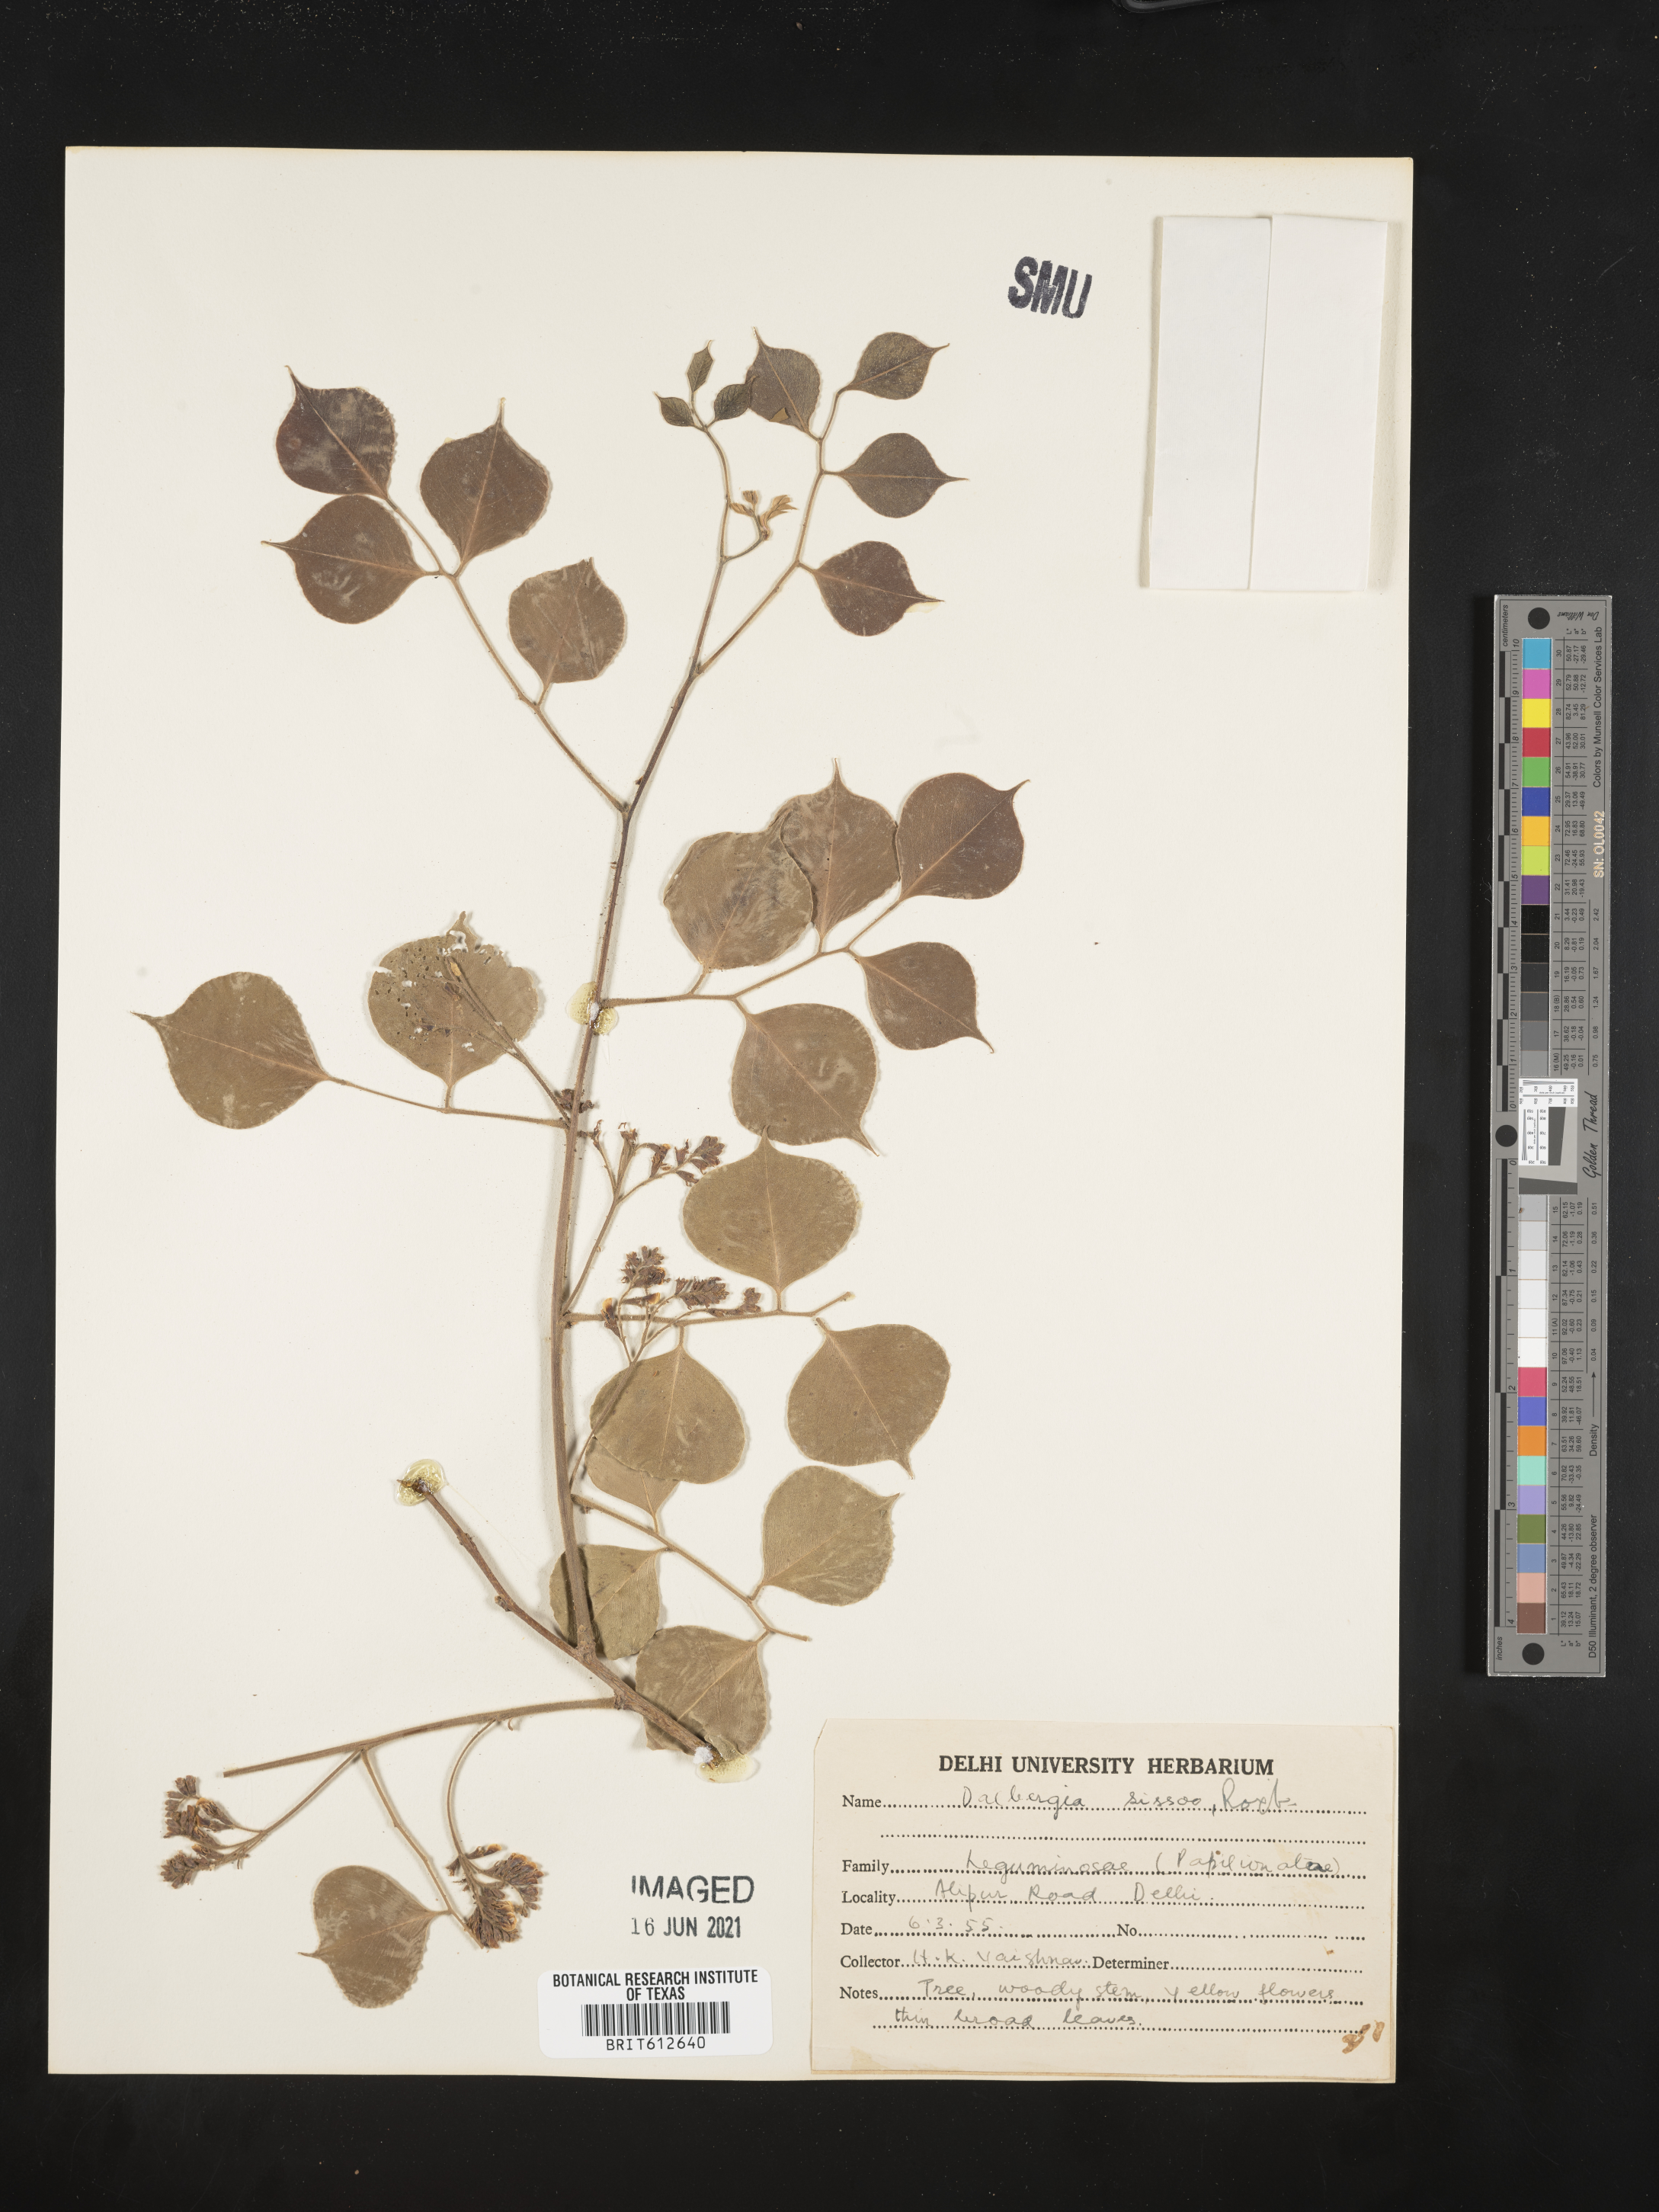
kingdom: Plantae
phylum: Tracheophyta
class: Magnoliopsida
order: Fabales
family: Fabaceae
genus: Dalbergia
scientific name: Dalbergia sissoo
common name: Indian rosewood
